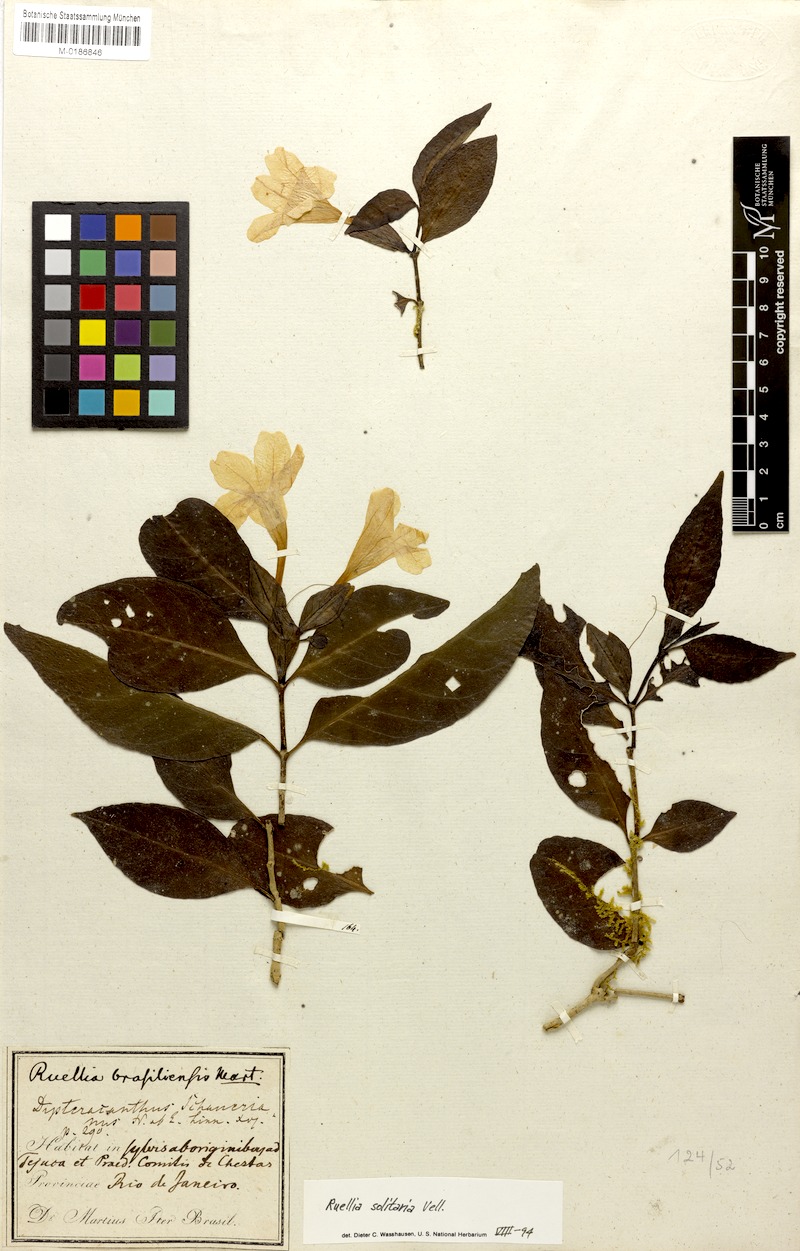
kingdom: Plantae
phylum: Tracheophyta
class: Magnoliopsida
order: Lamiales
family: Acanthaceae
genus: Ruellia
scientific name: Ruellia solitaria
